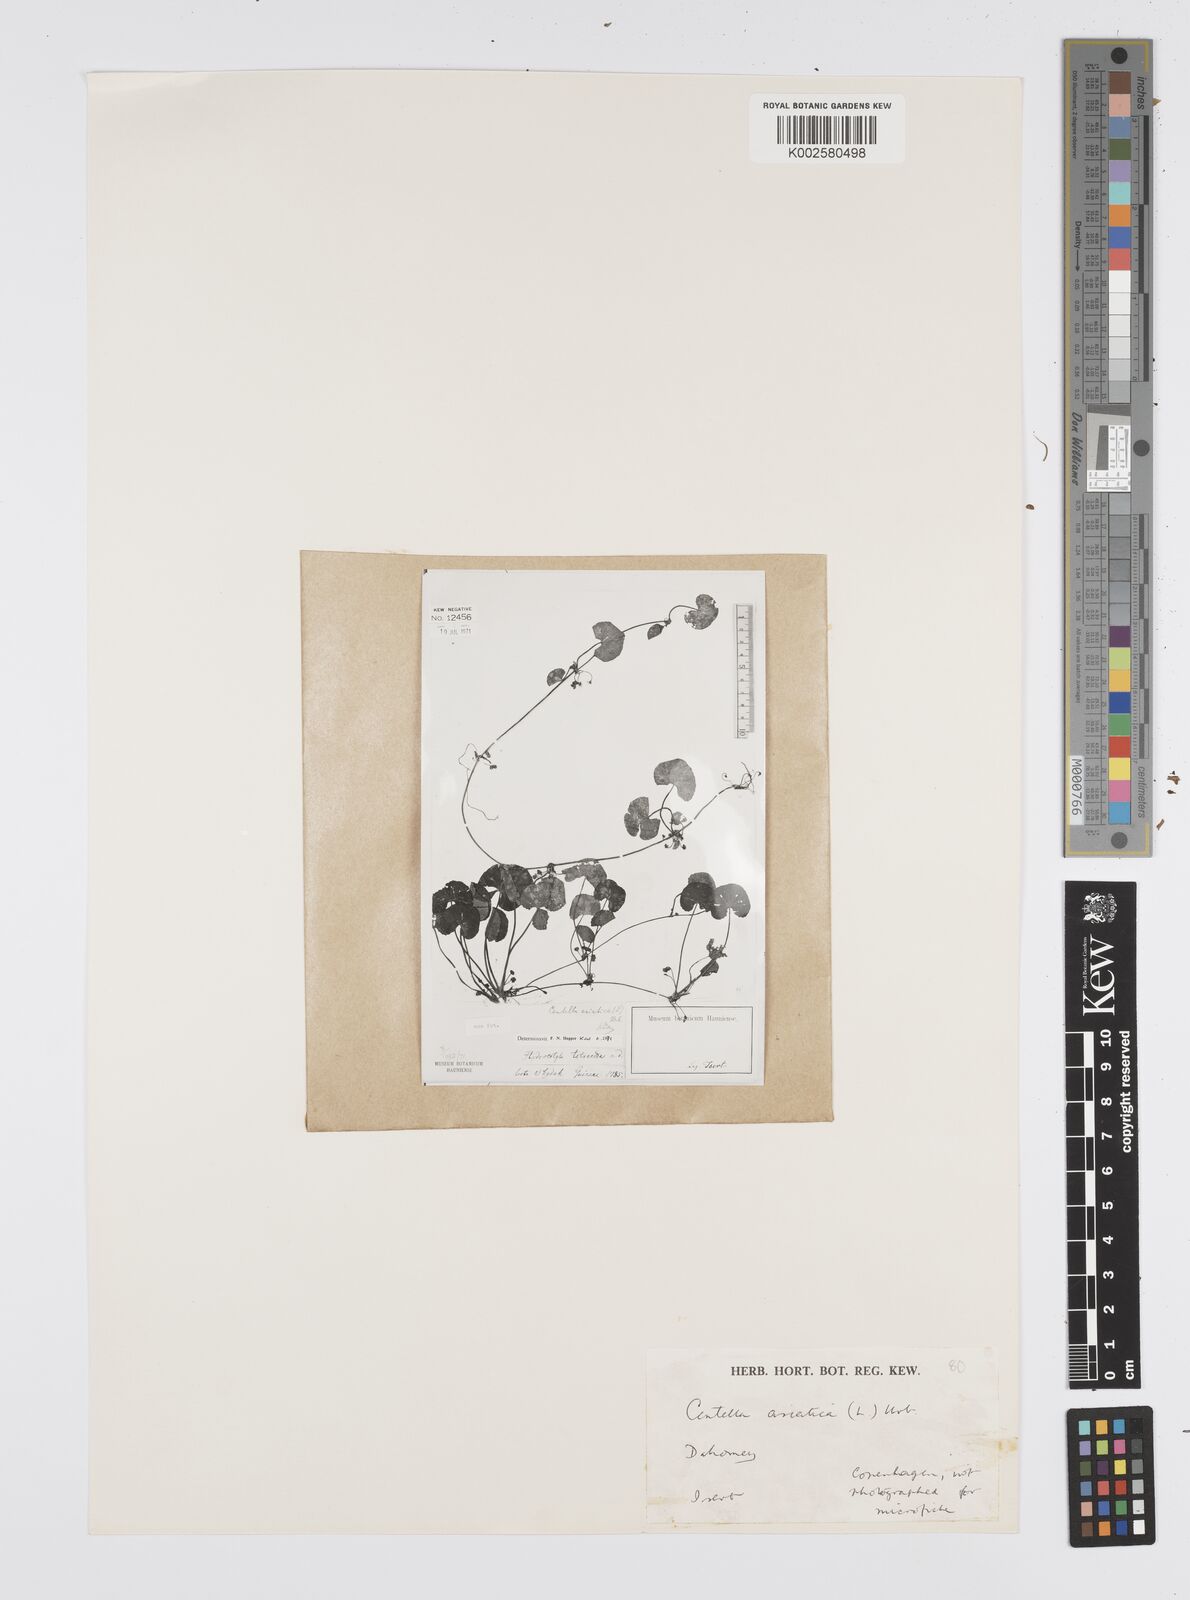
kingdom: Plantae
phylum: Tracheophyta
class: Magnoliopsida
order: Apiales
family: Apiaceae
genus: Centella
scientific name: Centella asiatica
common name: Spadeleaf
